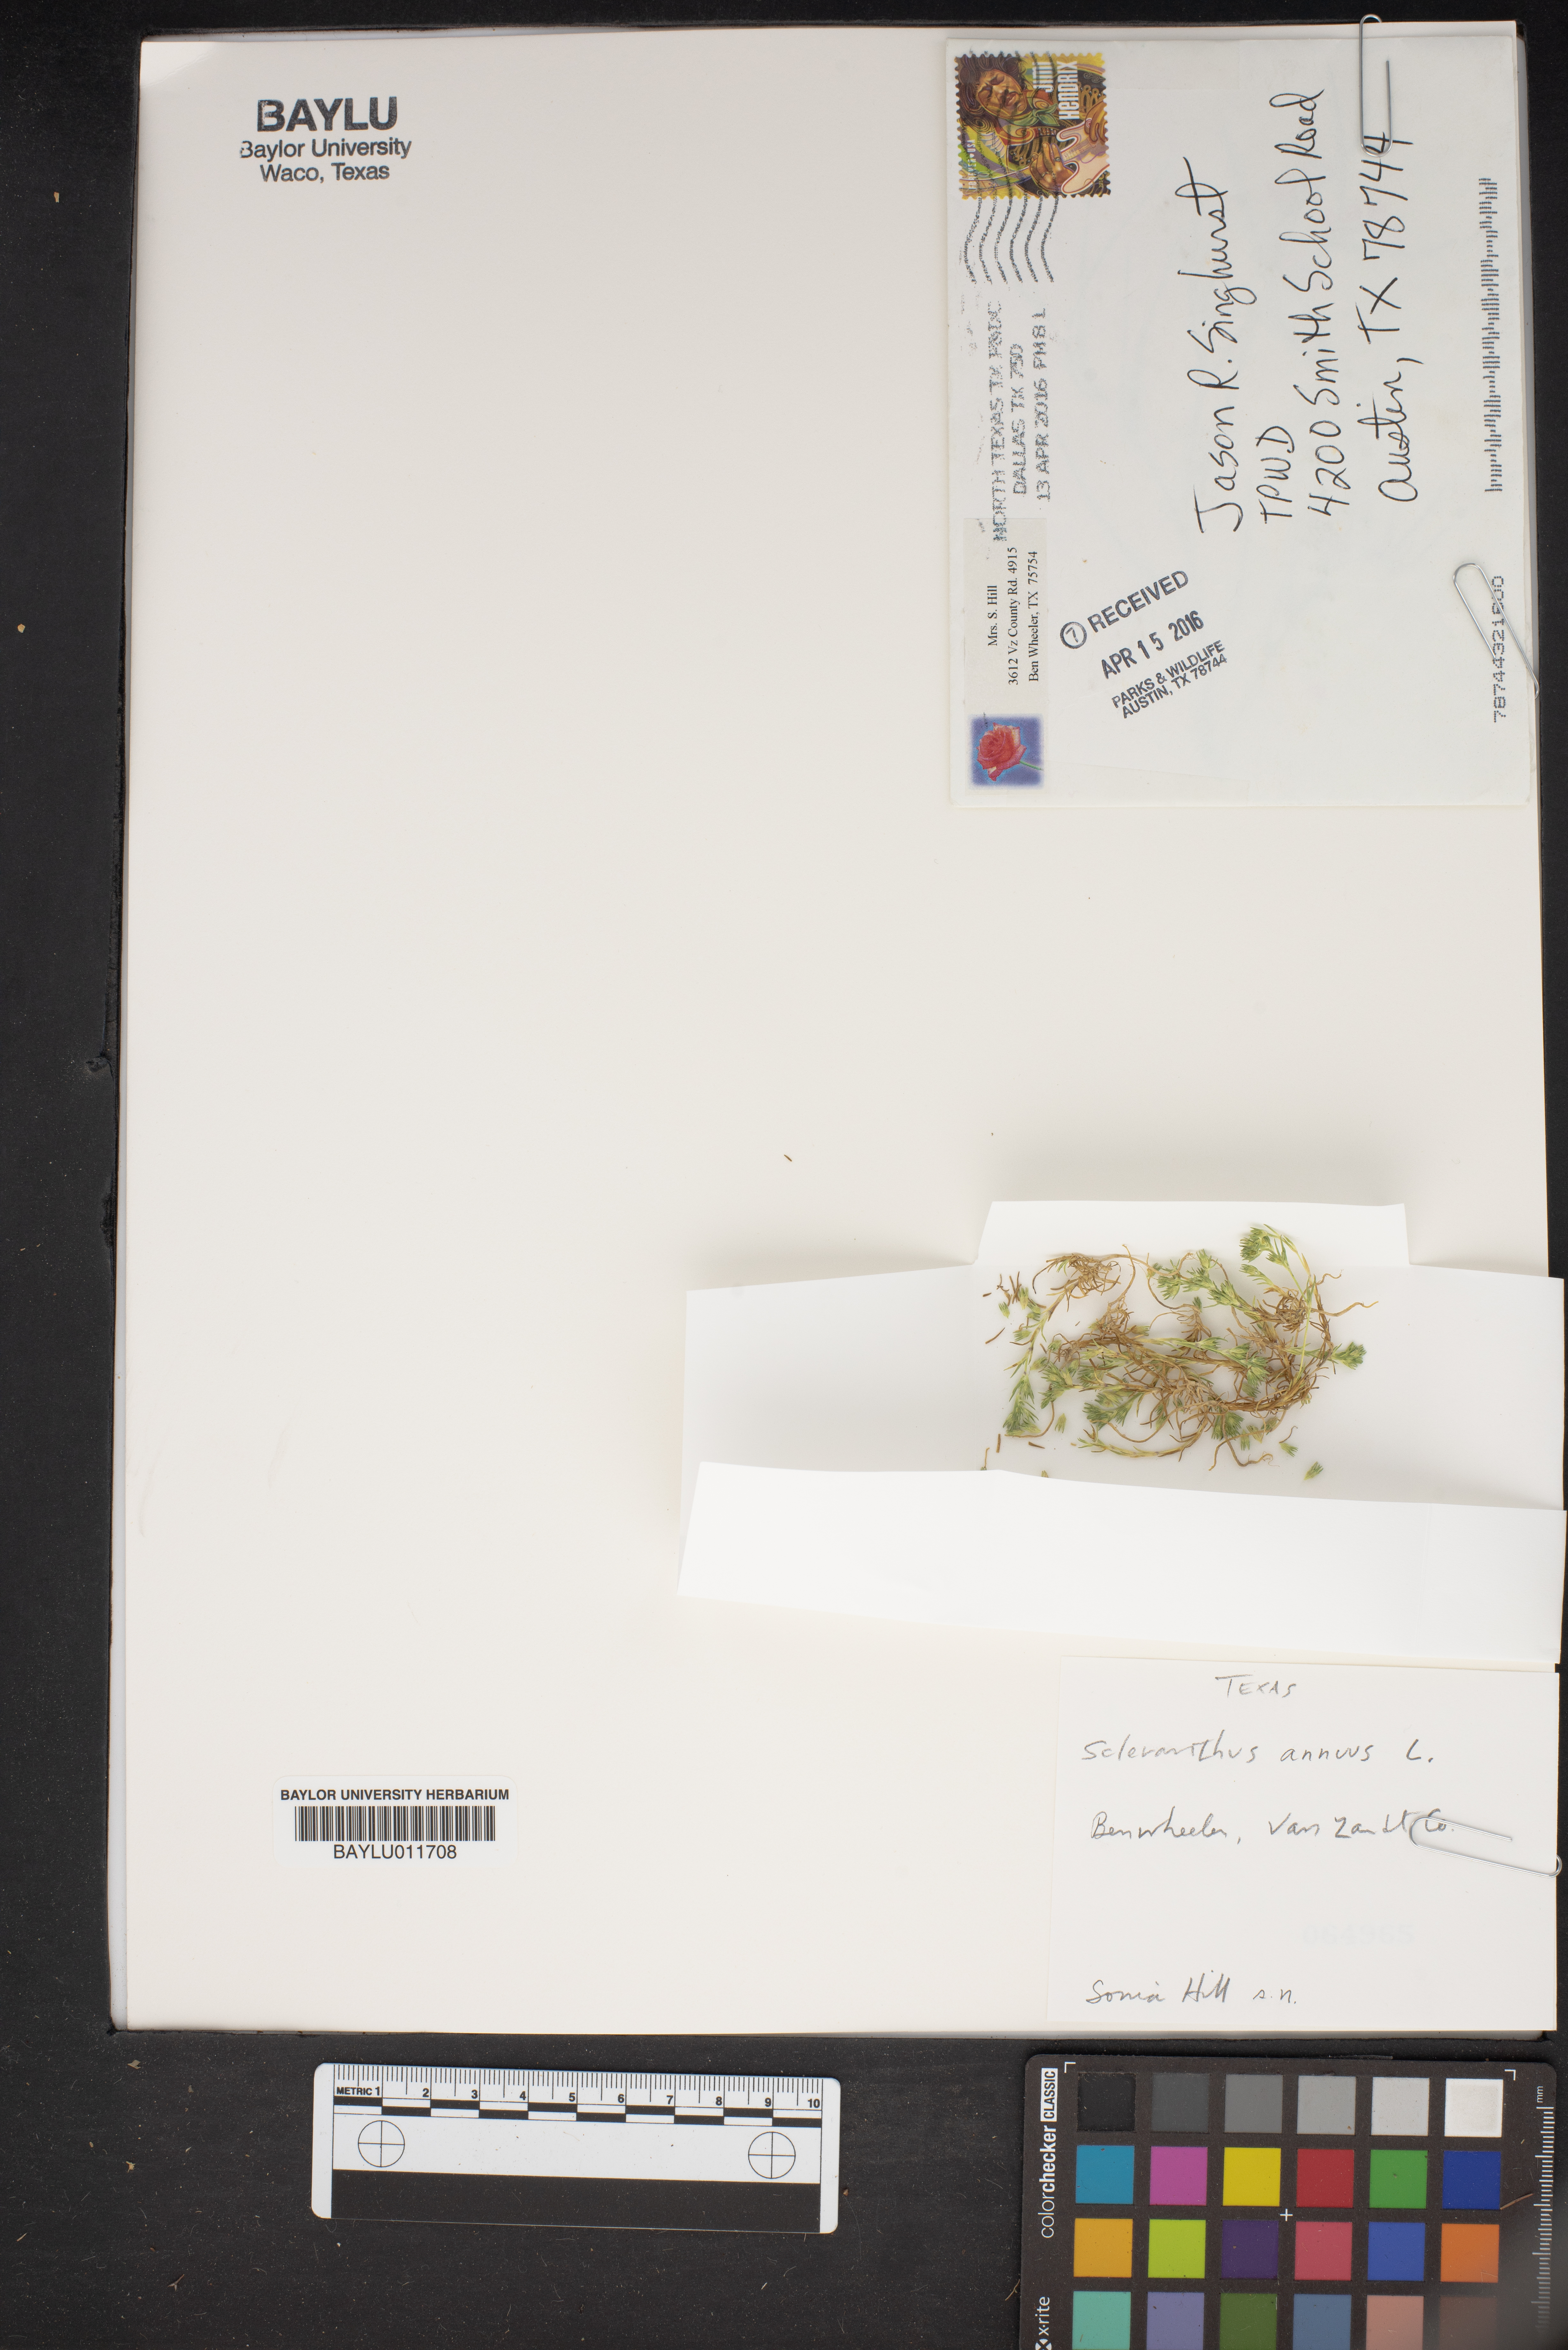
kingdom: Plantae
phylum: Tracheophyta
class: Magnoliopsida
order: Caryophyllales
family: Caryophyllaceae
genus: Scleranthus
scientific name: Scleranthus annuus
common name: Annual knawel
